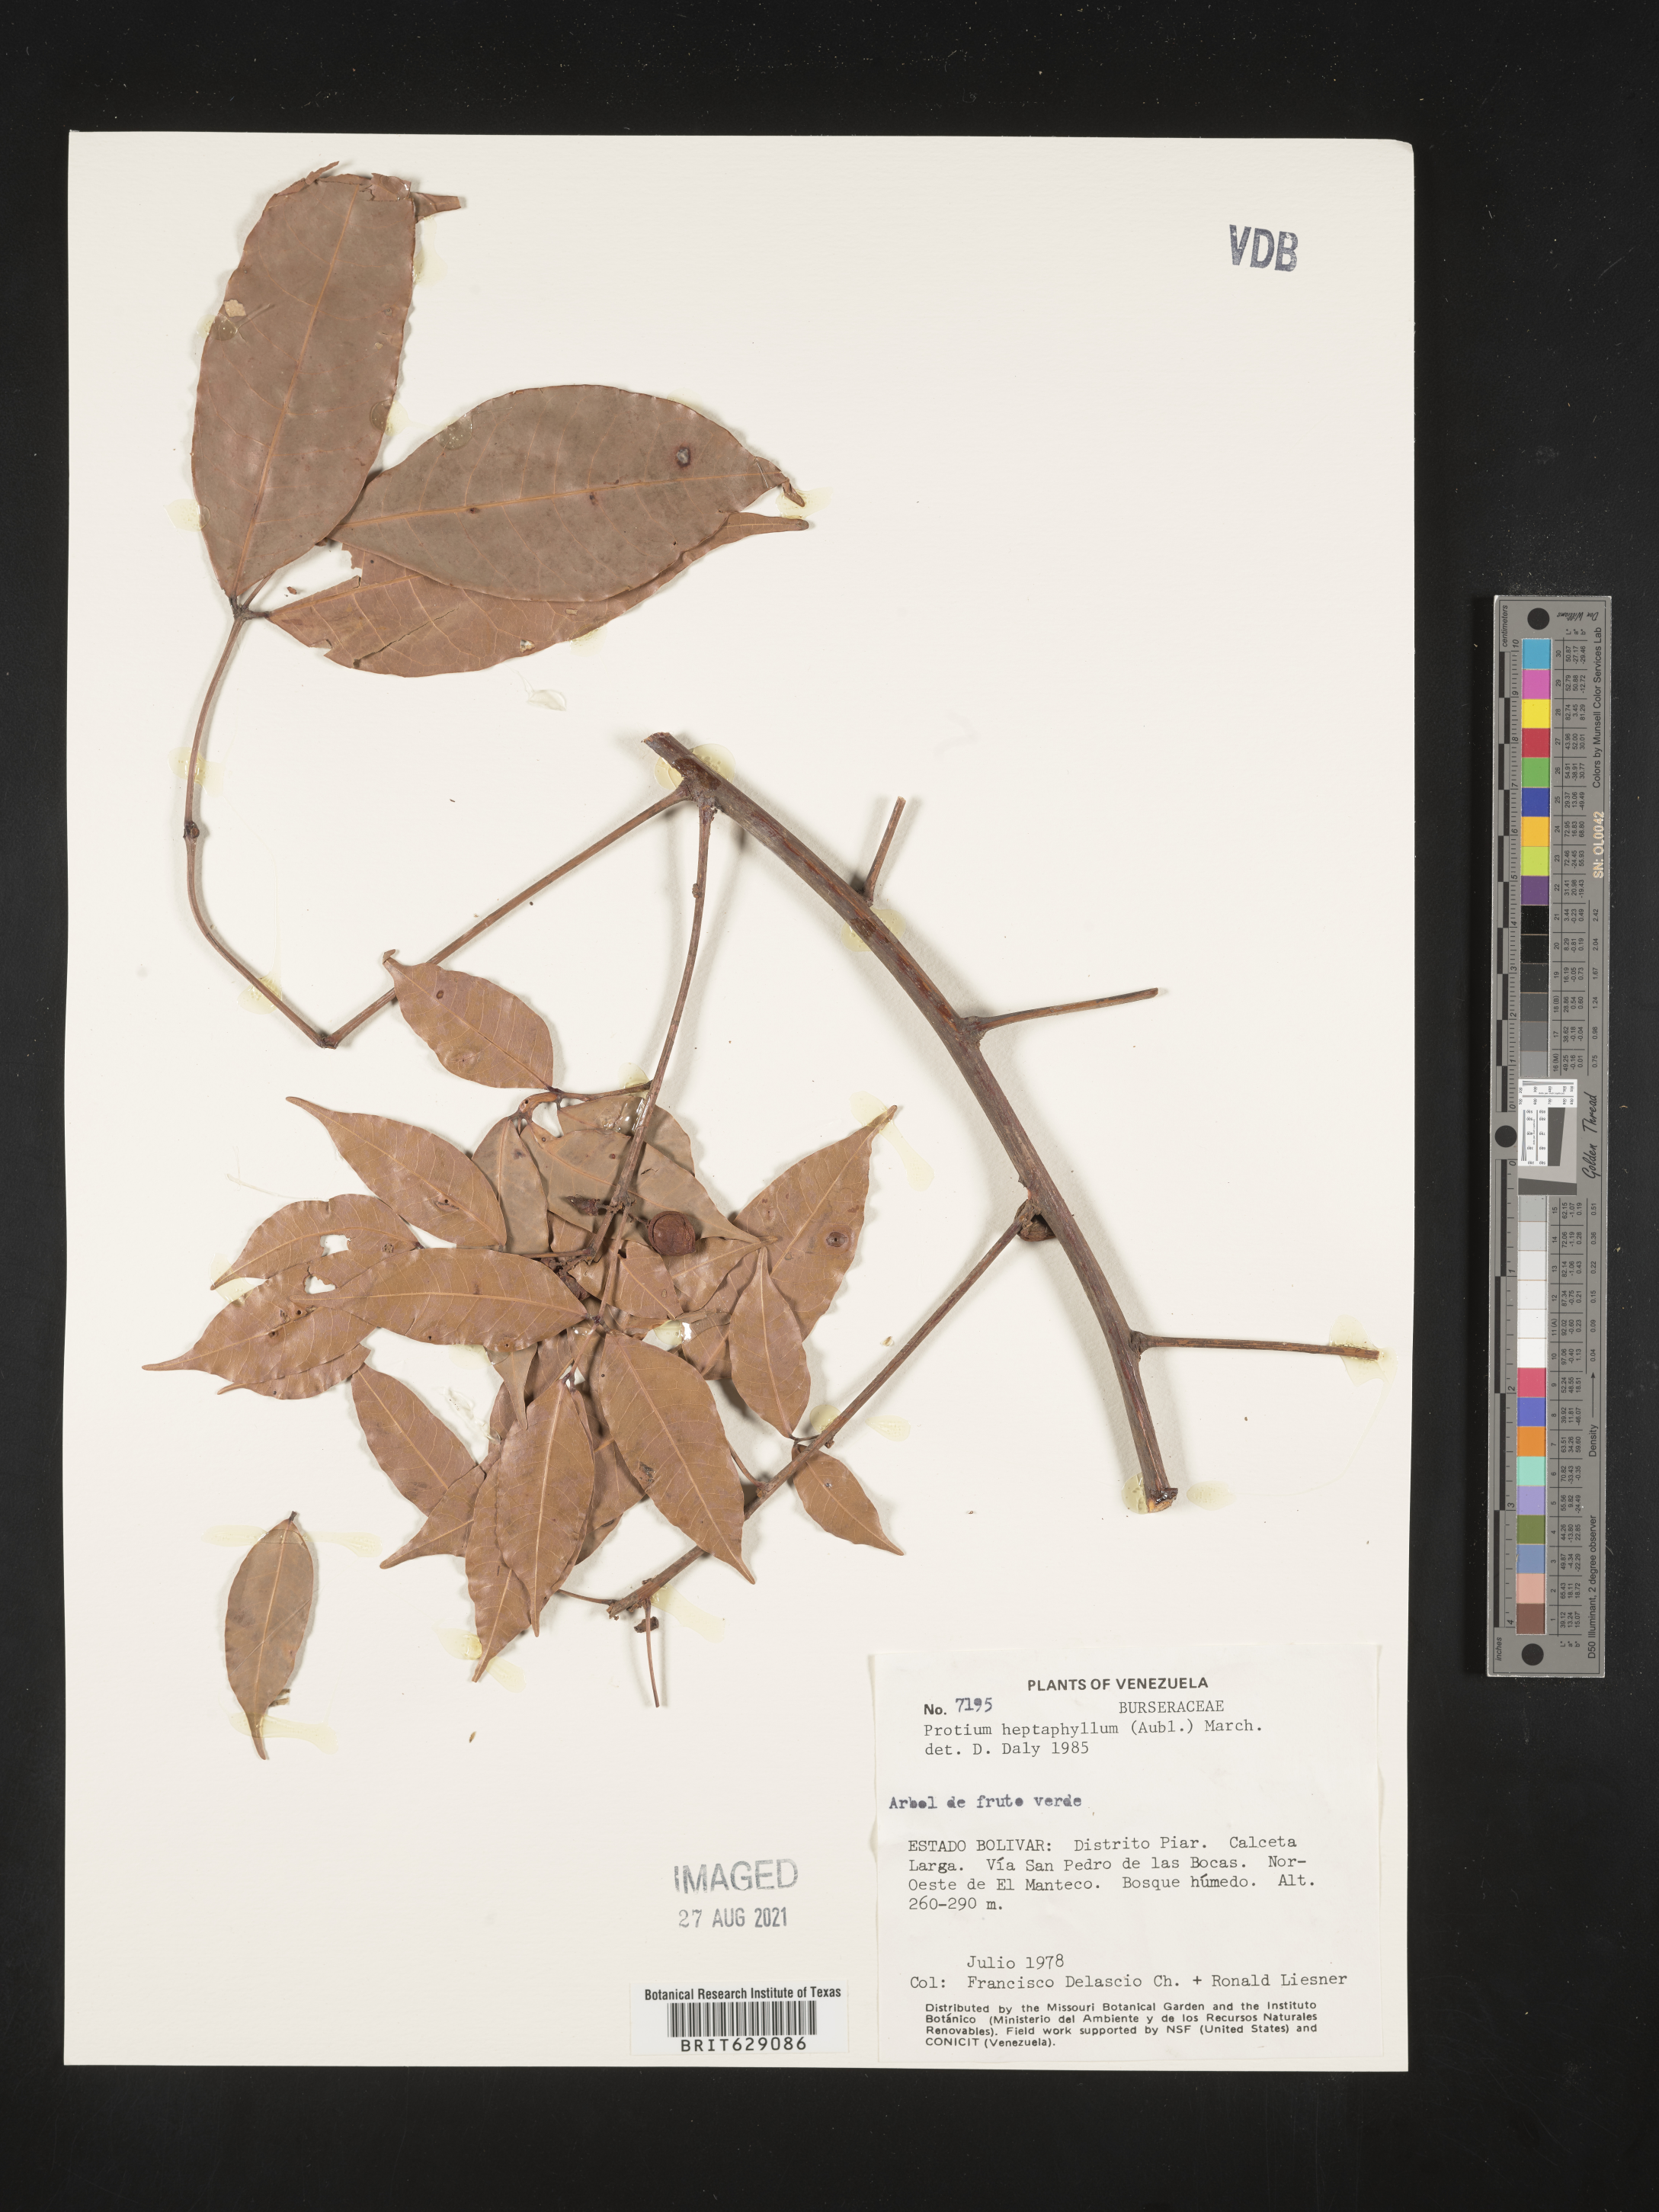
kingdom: Plantae
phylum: Tracheophyta
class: Magnoliopsida
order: Sapindales
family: Burseraceae
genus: Protium
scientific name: Protium heptaphyllum
